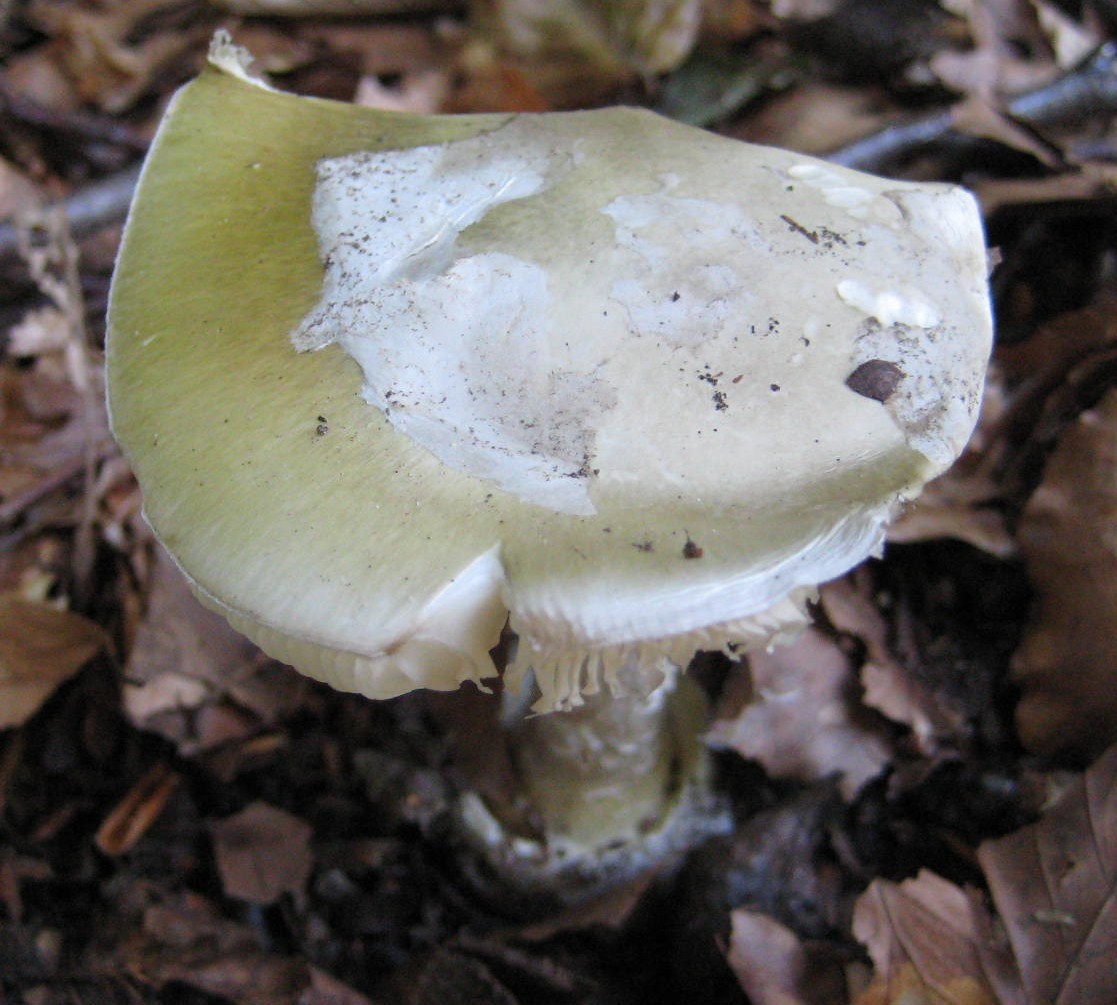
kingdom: Fungi
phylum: Basidiomycota
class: Agaricomycetes
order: Agaricales
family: Amanitaceae
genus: Amanita
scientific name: Amanita phalloides
